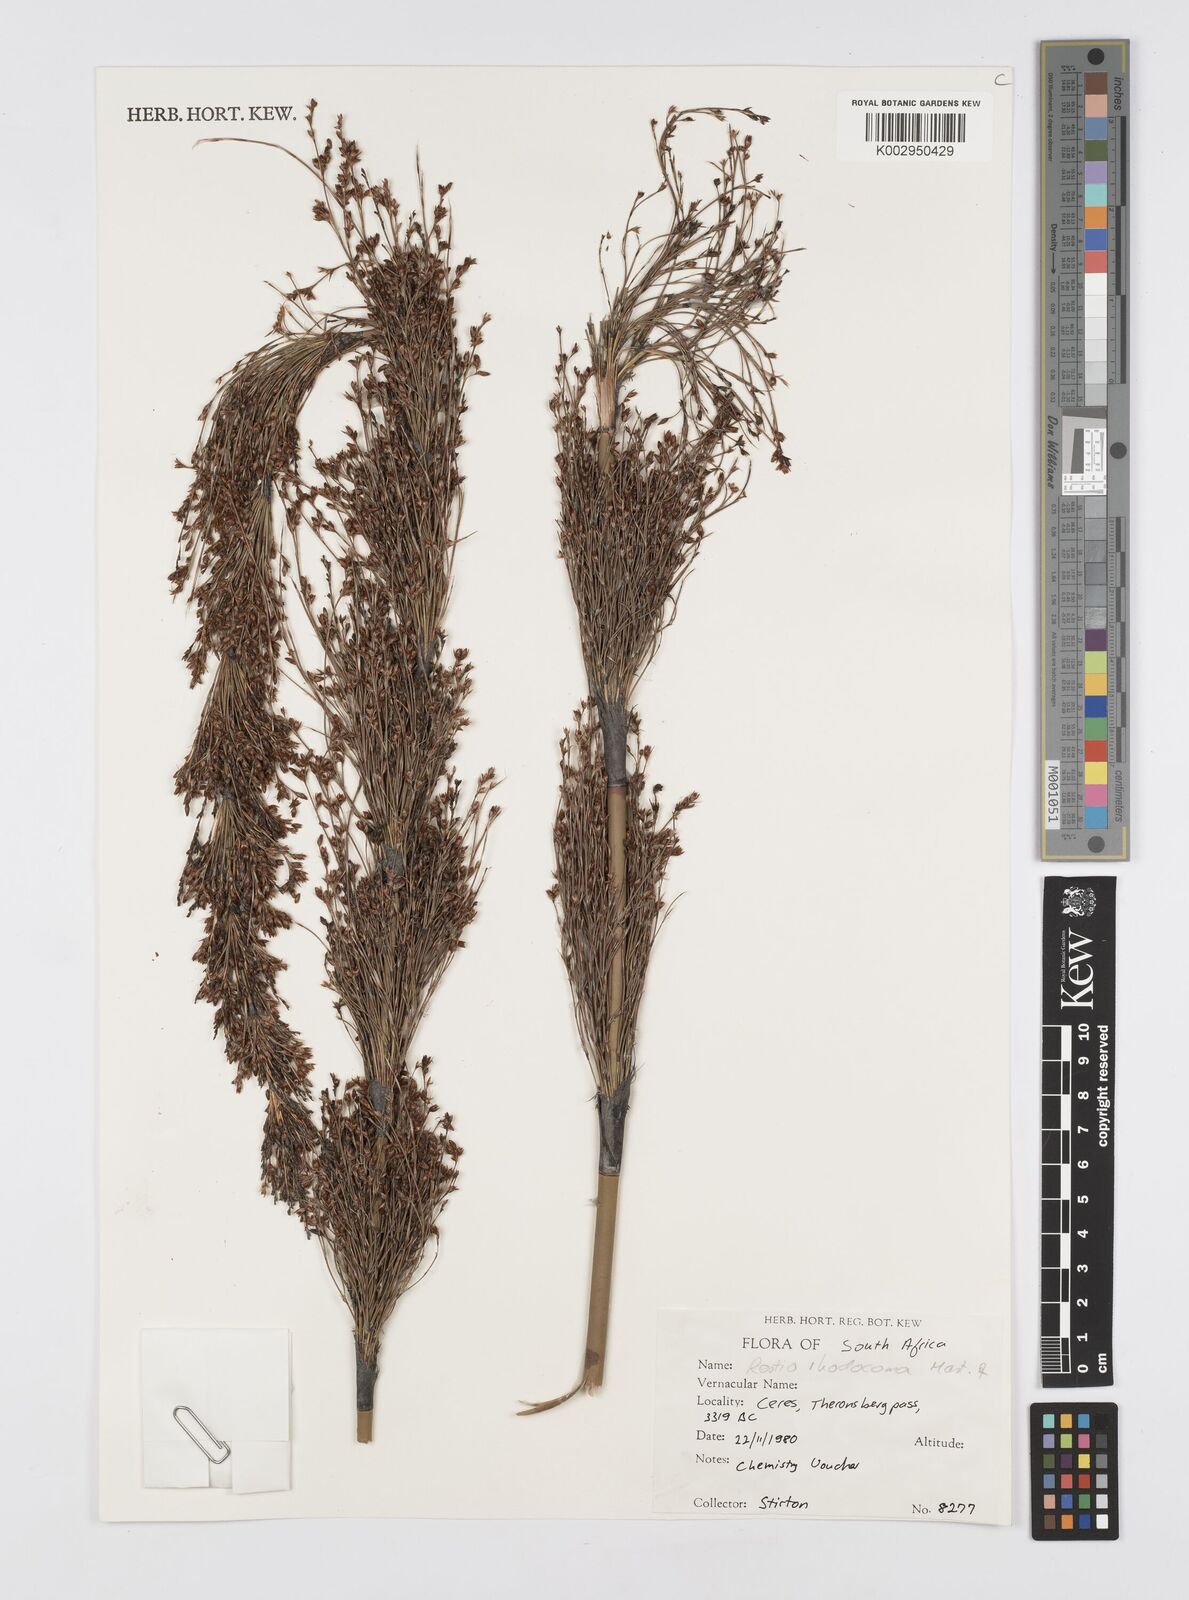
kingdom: Plantae
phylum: Tracheophyta
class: Liliopsida
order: Poales
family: Restionaceae
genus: Rhodocoma
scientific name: Rhodocoma capensis
